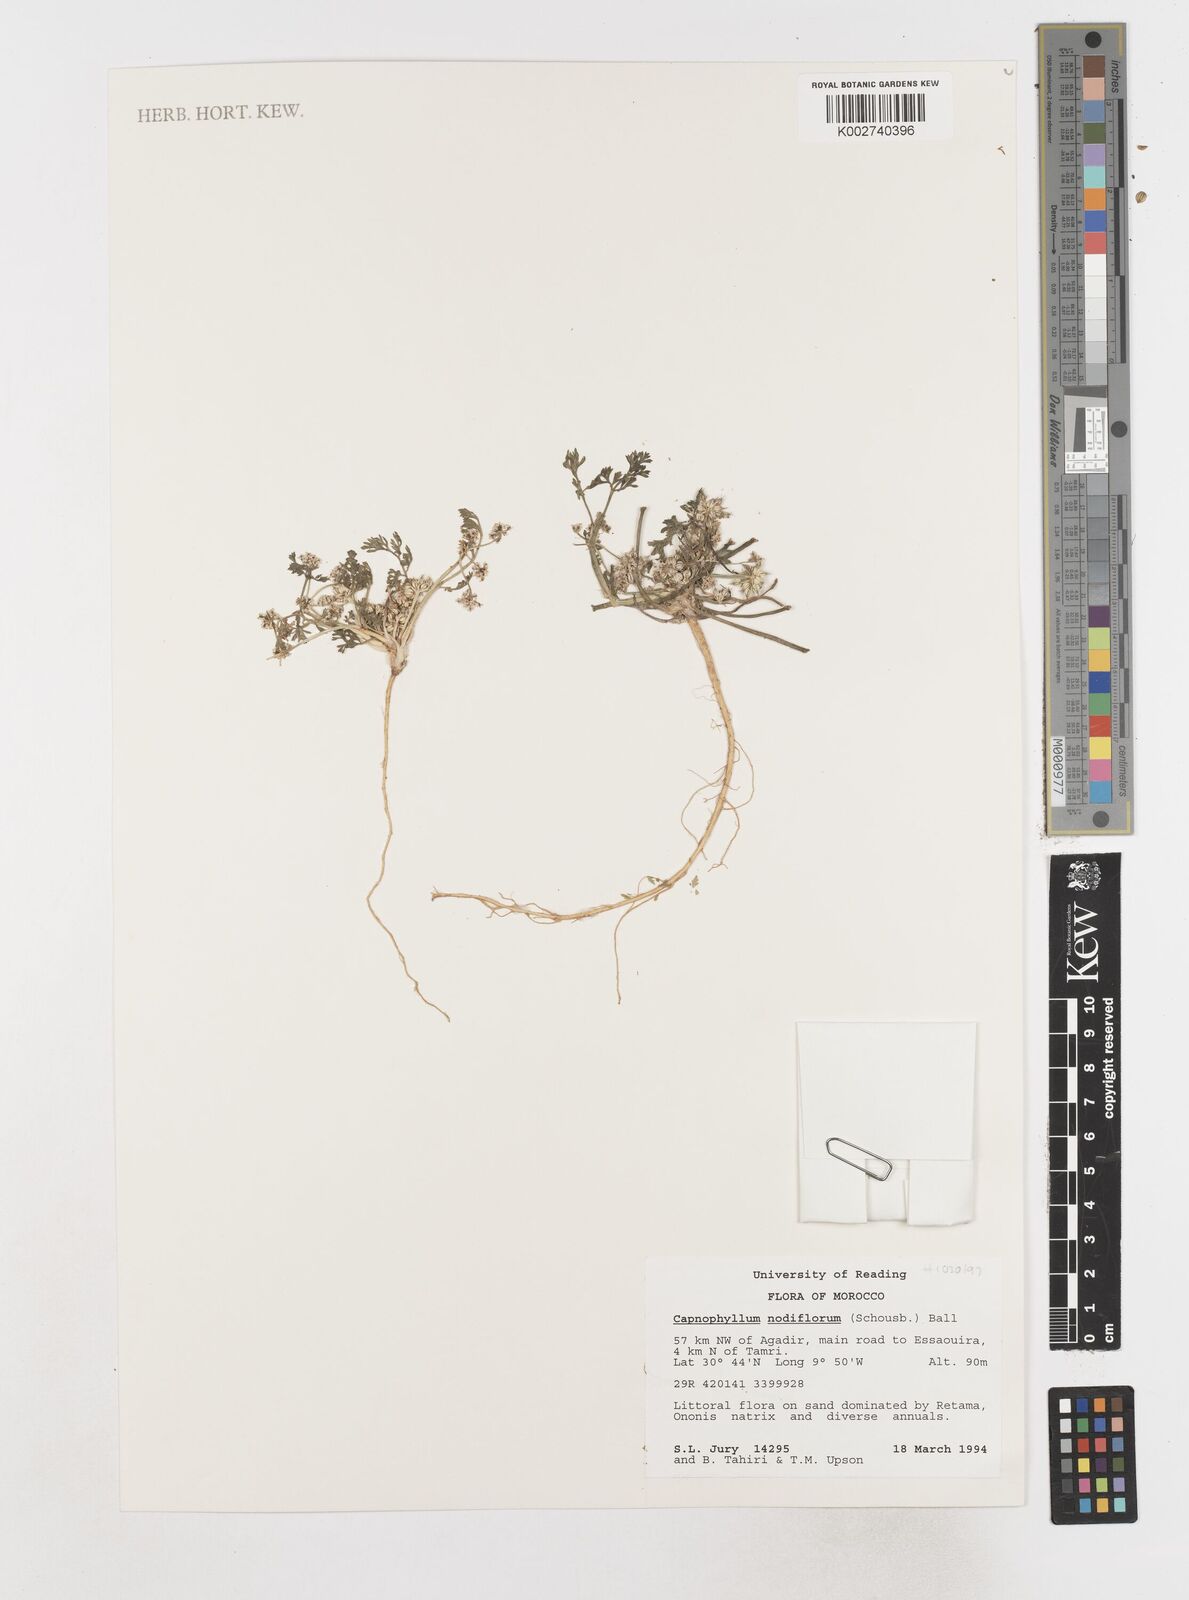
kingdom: Plantae
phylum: Tracheophyta
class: Magnoliopsida
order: Apiales
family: Apiaceae
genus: Sclerosciadium
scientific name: Sclerosciadium nodiflorum
